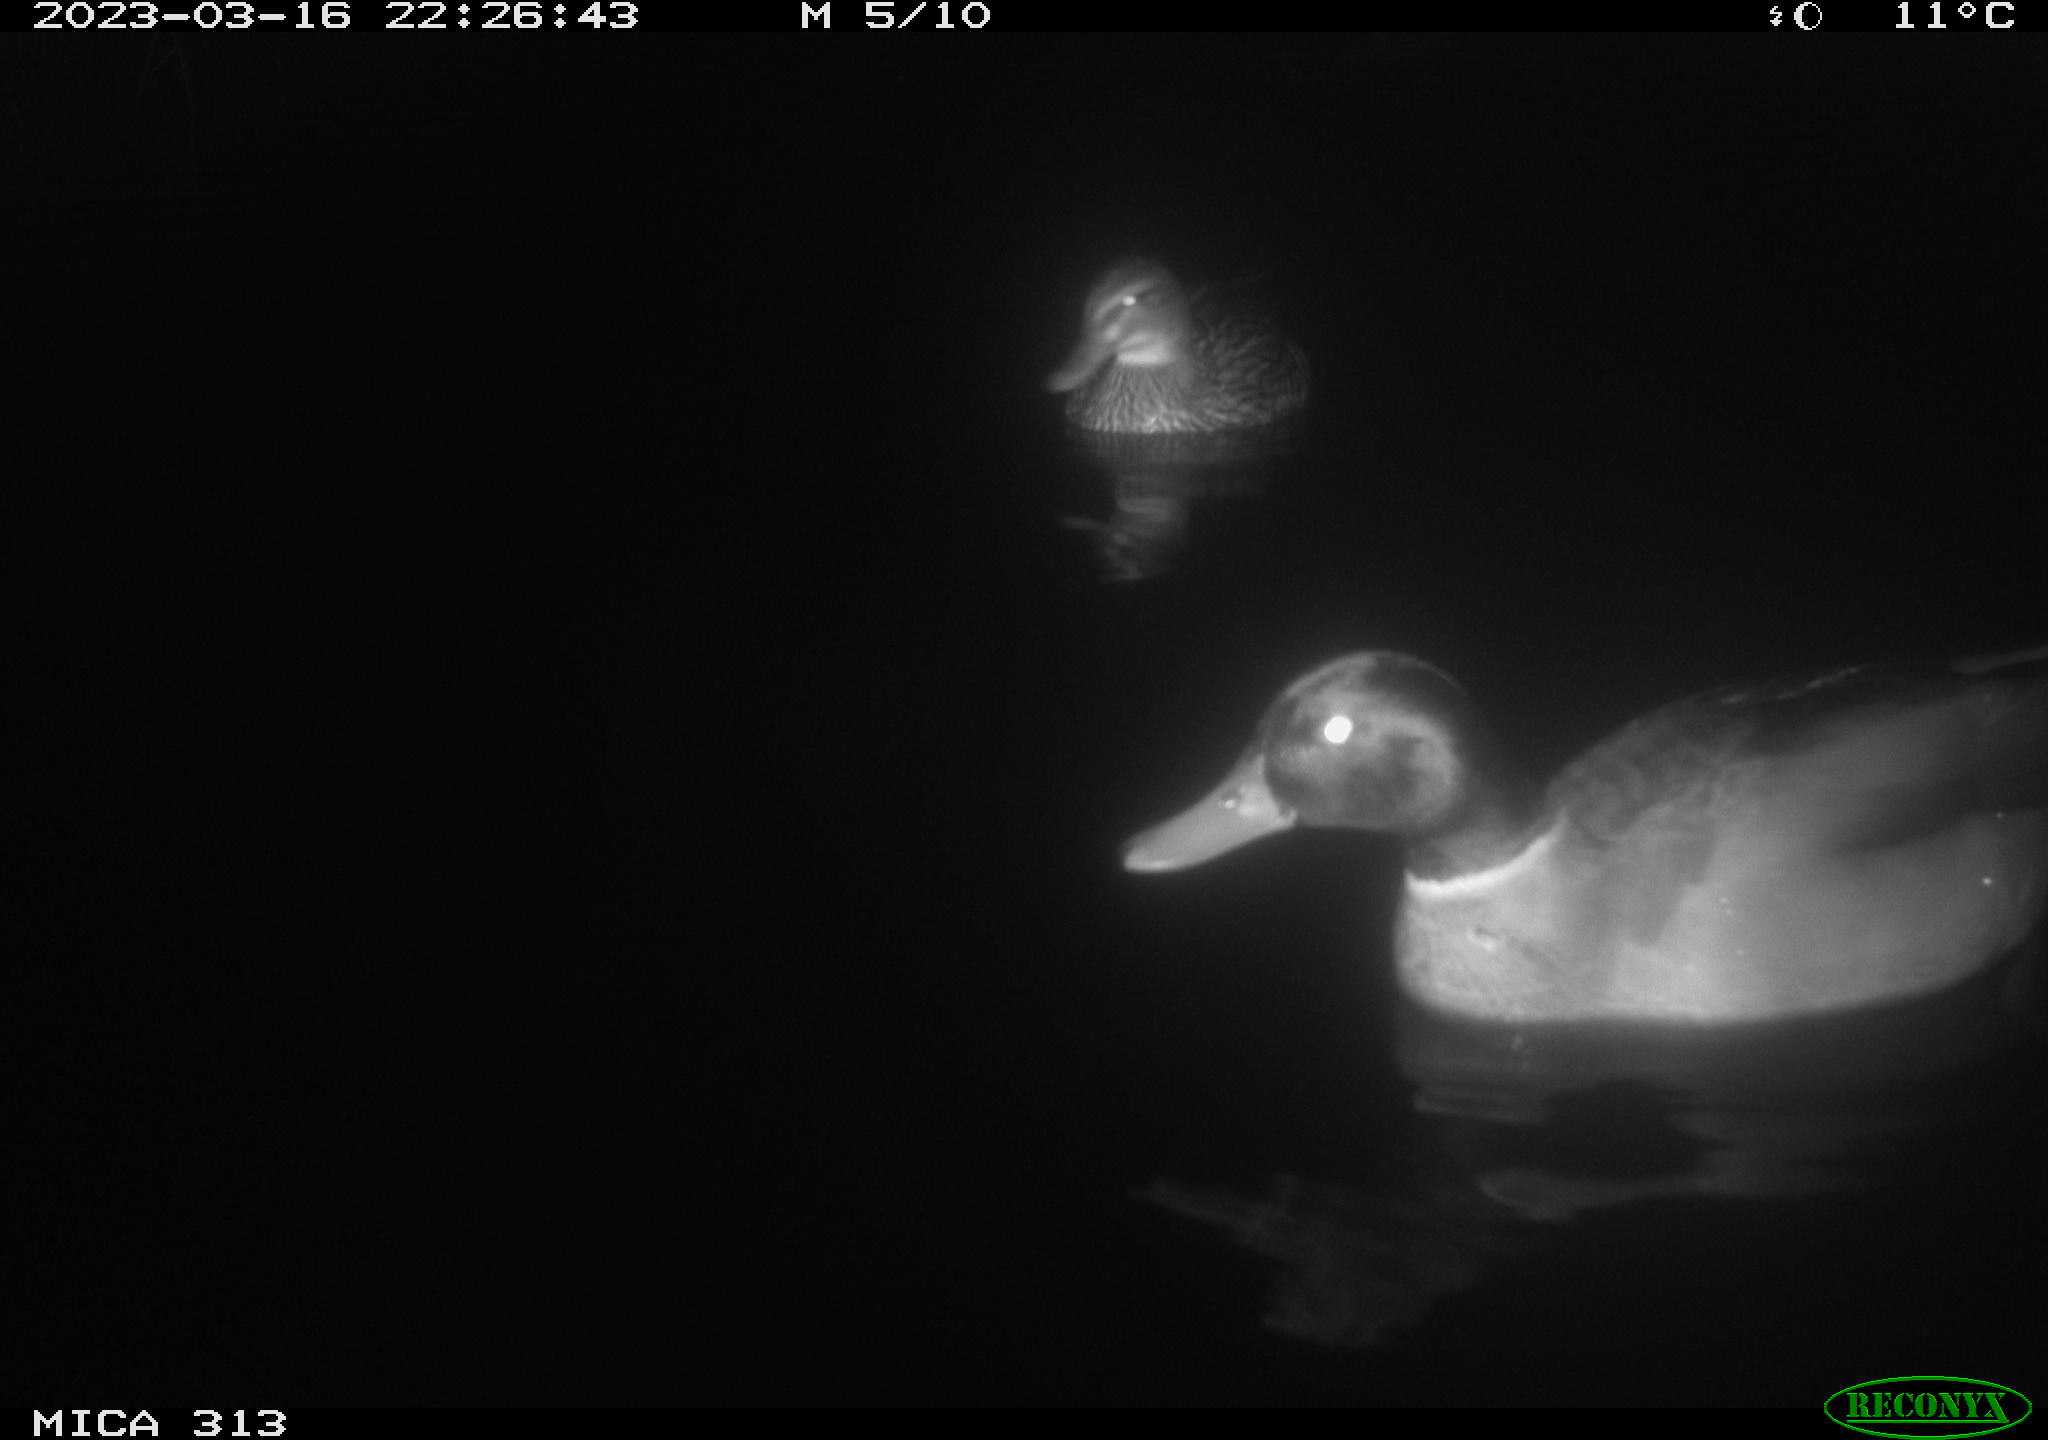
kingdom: Animalia
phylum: Chordata
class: Aves
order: Anseriformes
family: Anatidae
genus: Anas
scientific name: Anas
